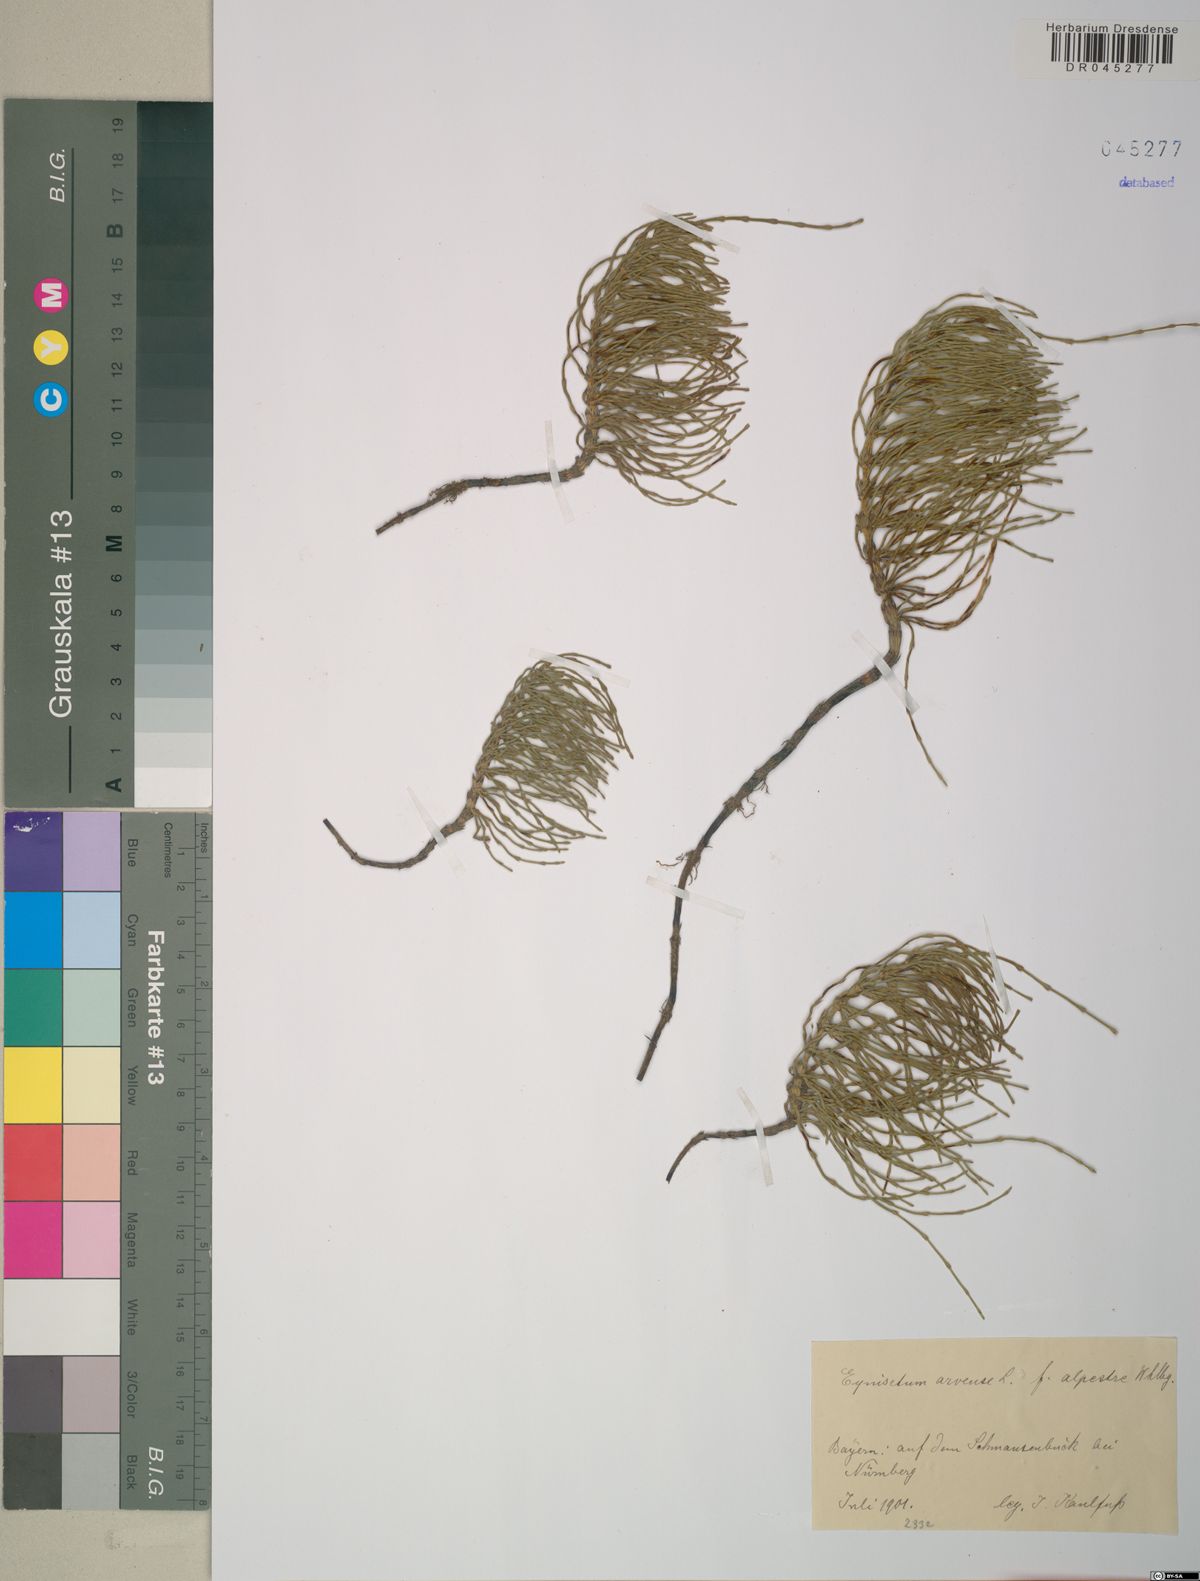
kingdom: Plantae
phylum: Tracheophyta
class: Polypodiopsida
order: Equisetales
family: Equisetaceae
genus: Equisetum
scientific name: Equisetum arvense
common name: Field horsetail
